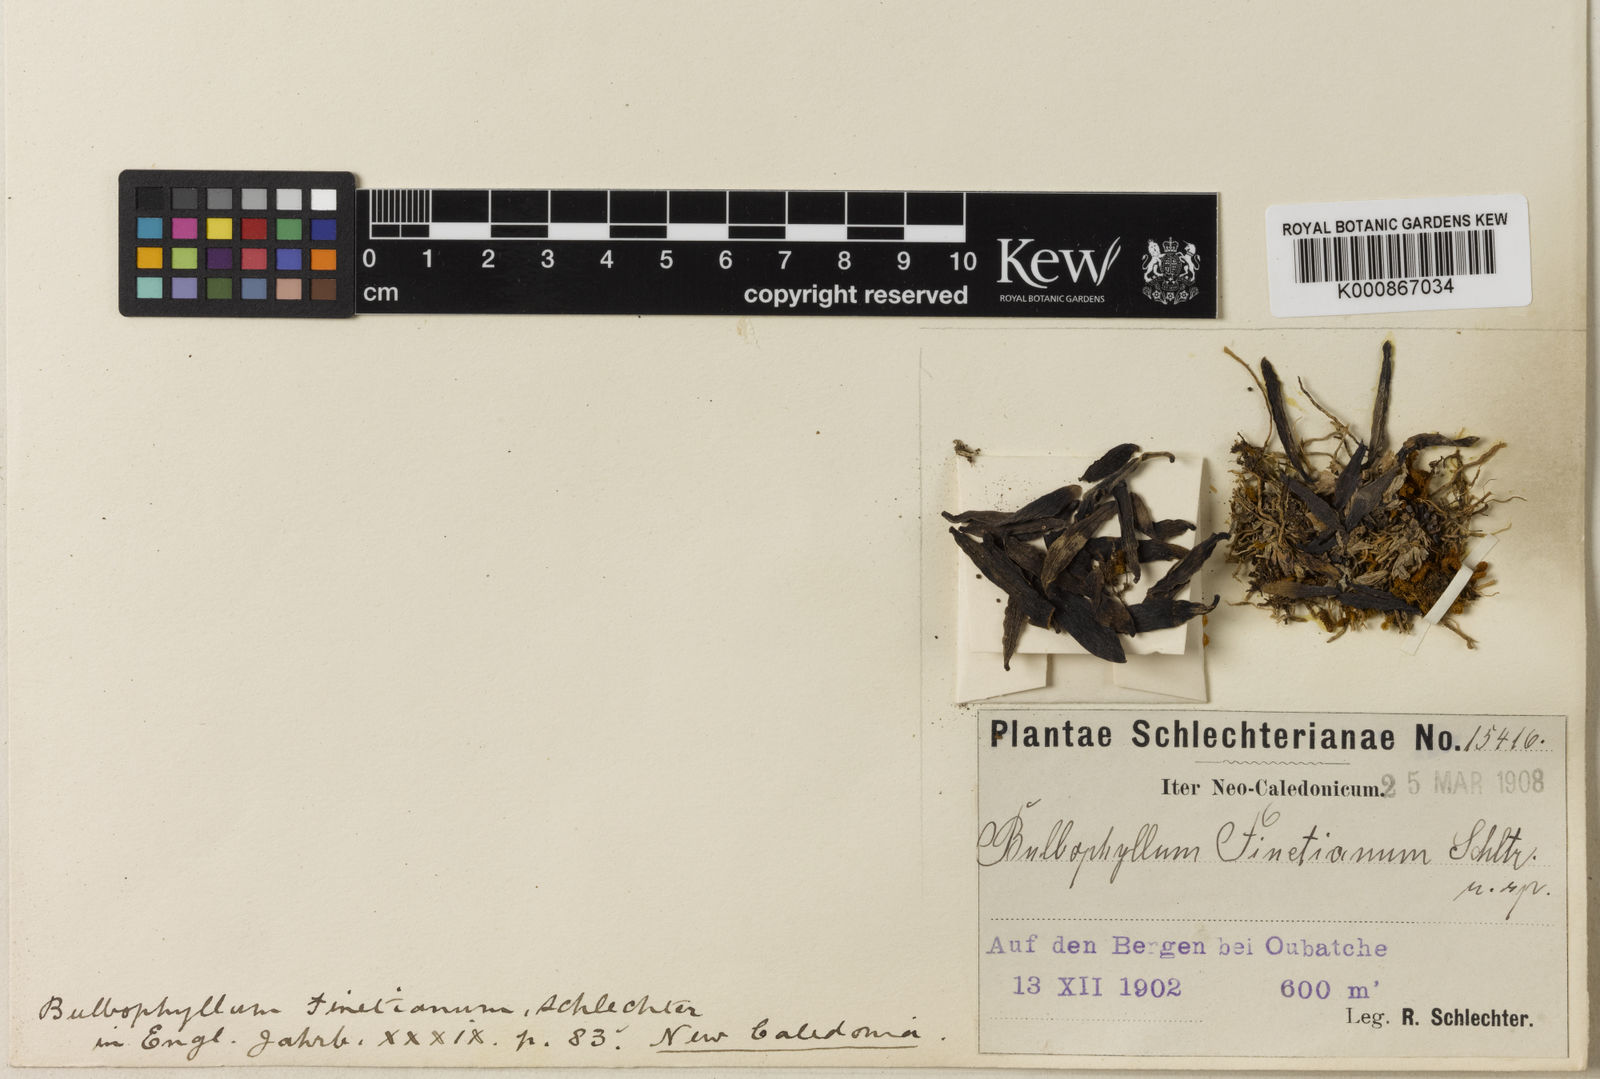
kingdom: Plantae
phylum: Tracheophyta
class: Liliopsida
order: Asparagales
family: Orchidaceae
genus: Bulbophyllum
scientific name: Bulbophyllum betchei
